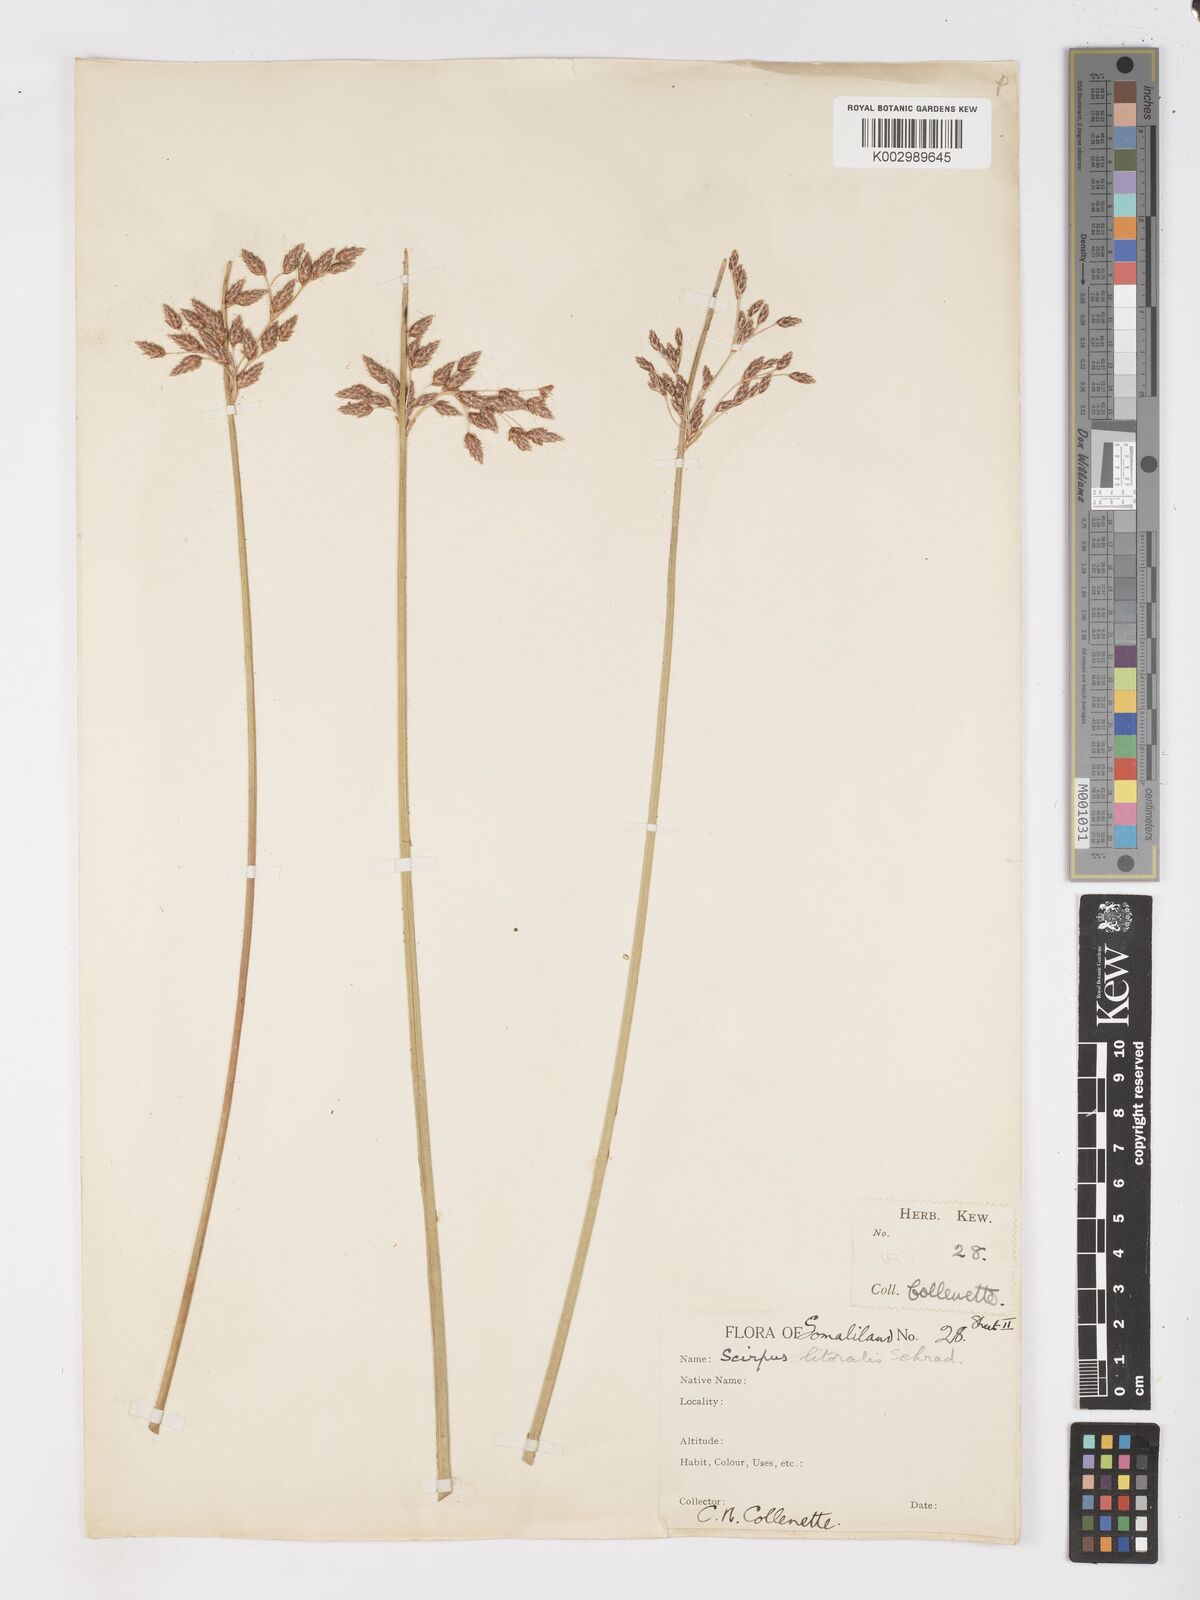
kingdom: Plantae
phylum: Tracheophyta
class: Liliopsida
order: Poales
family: Cyperaceae
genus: Schoenoplectus
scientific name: Schoenoplectus litoralis
